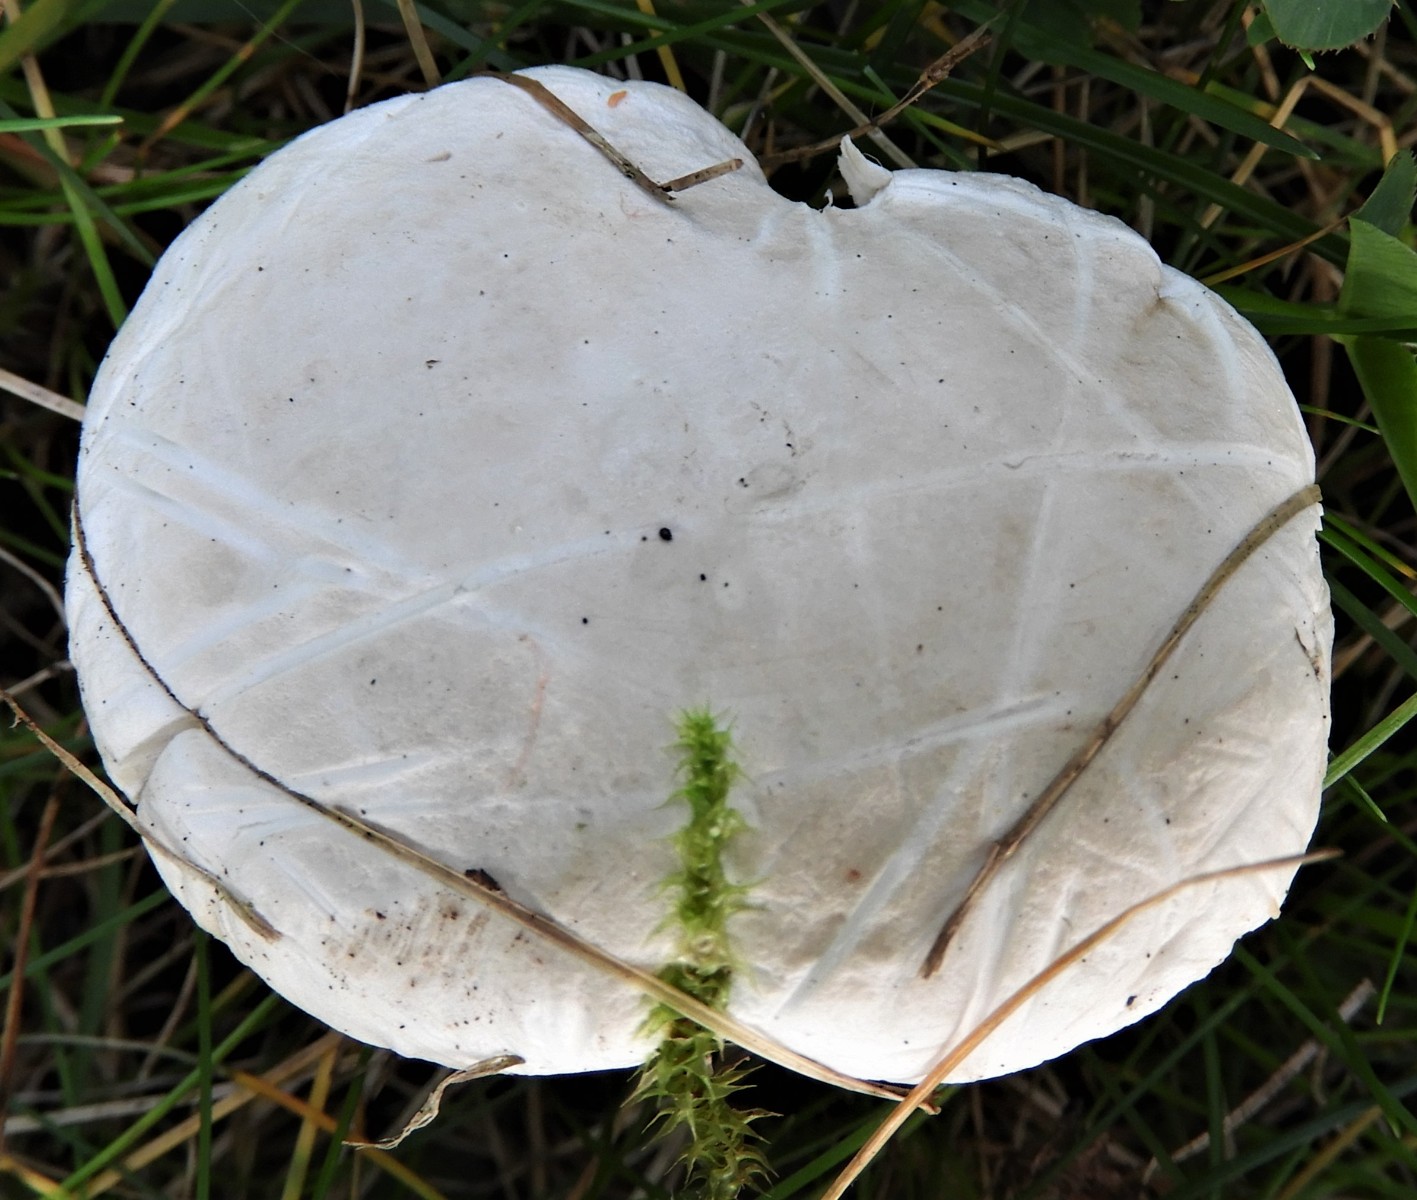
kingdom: Fungi
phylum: Basidiomycota
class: Agaricomycetes
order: Agaricales
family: Entolomataceae
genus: Clitopilus
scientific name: Clitopilus prunulus
